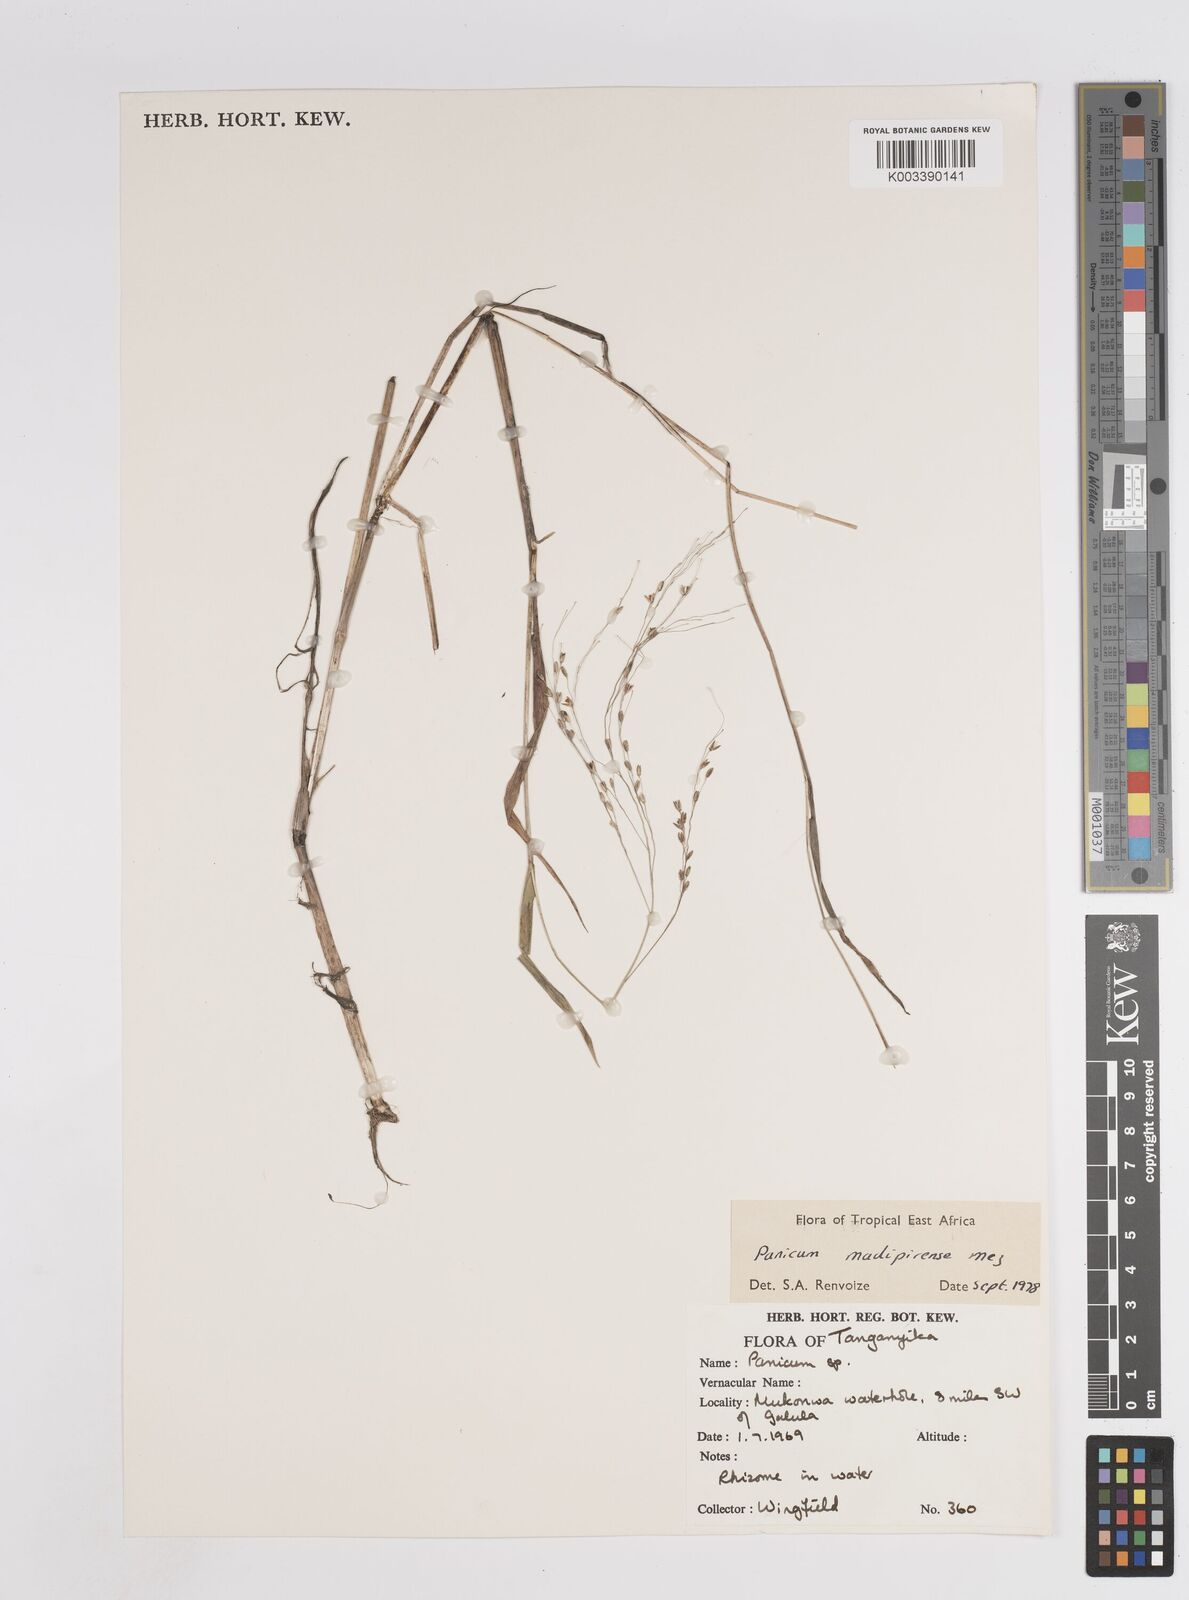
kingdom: Plantae
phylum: Tracheophyta
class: Liliopsida
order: Poales
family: Poaceae
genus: Panicum
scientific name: Panicum madipirense
